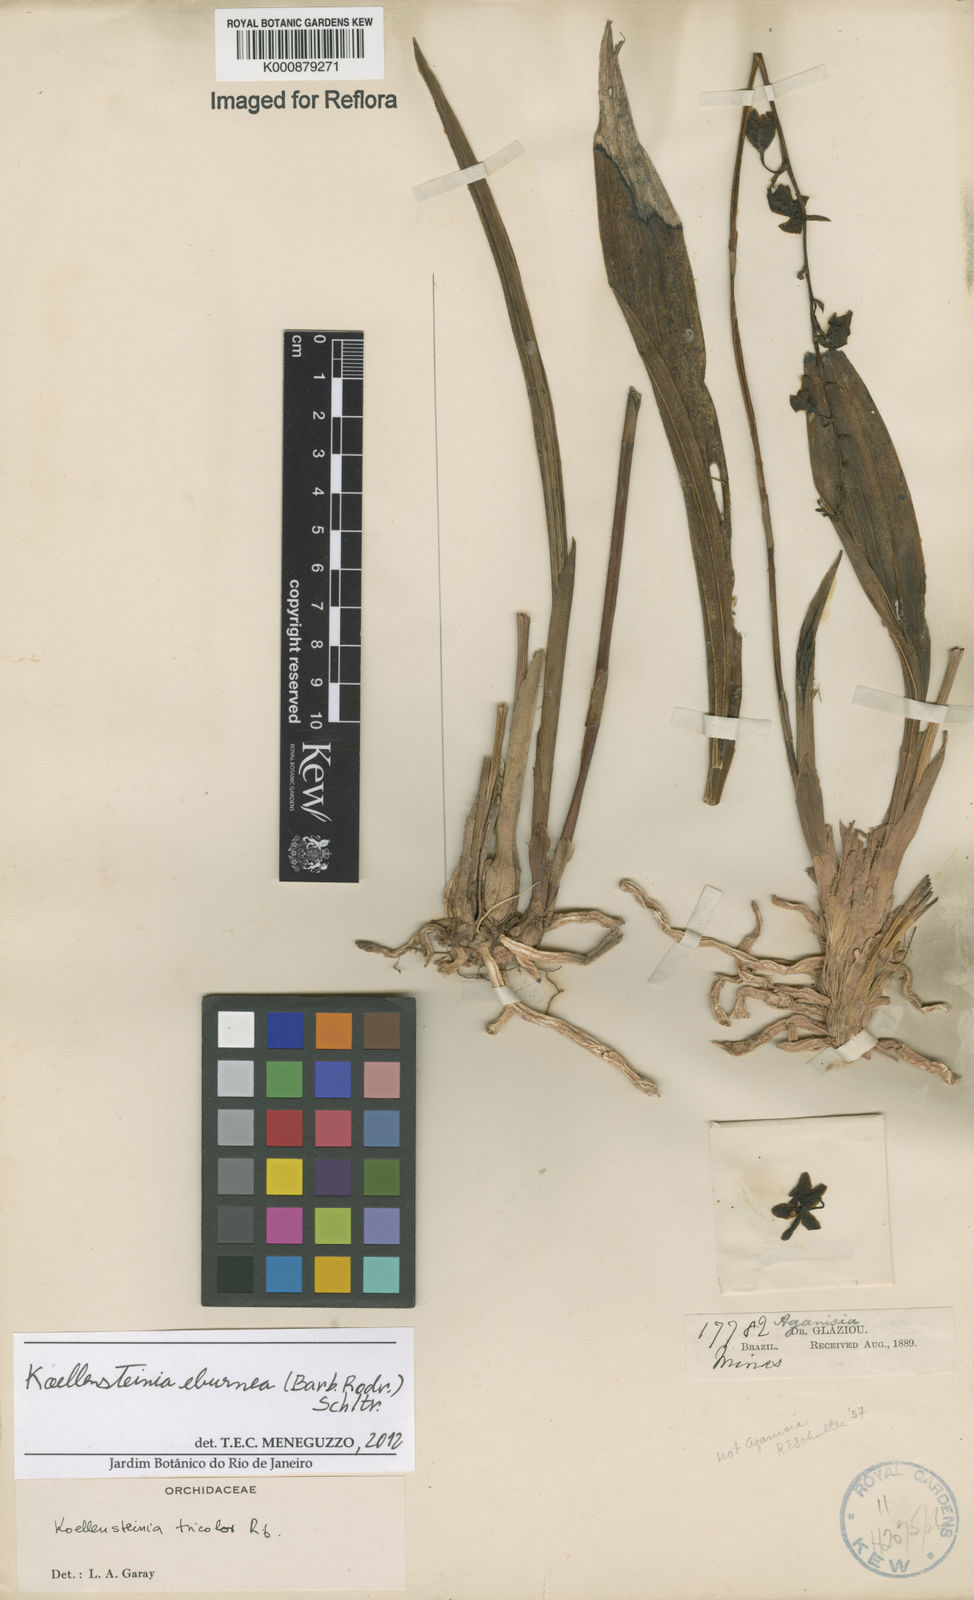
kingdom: Plantae
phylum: Tracheophyta
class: Liliopsida
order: Asparagales
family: Orchidaceae
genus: Koellensteinia
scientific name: Koellensteinia eburnea
